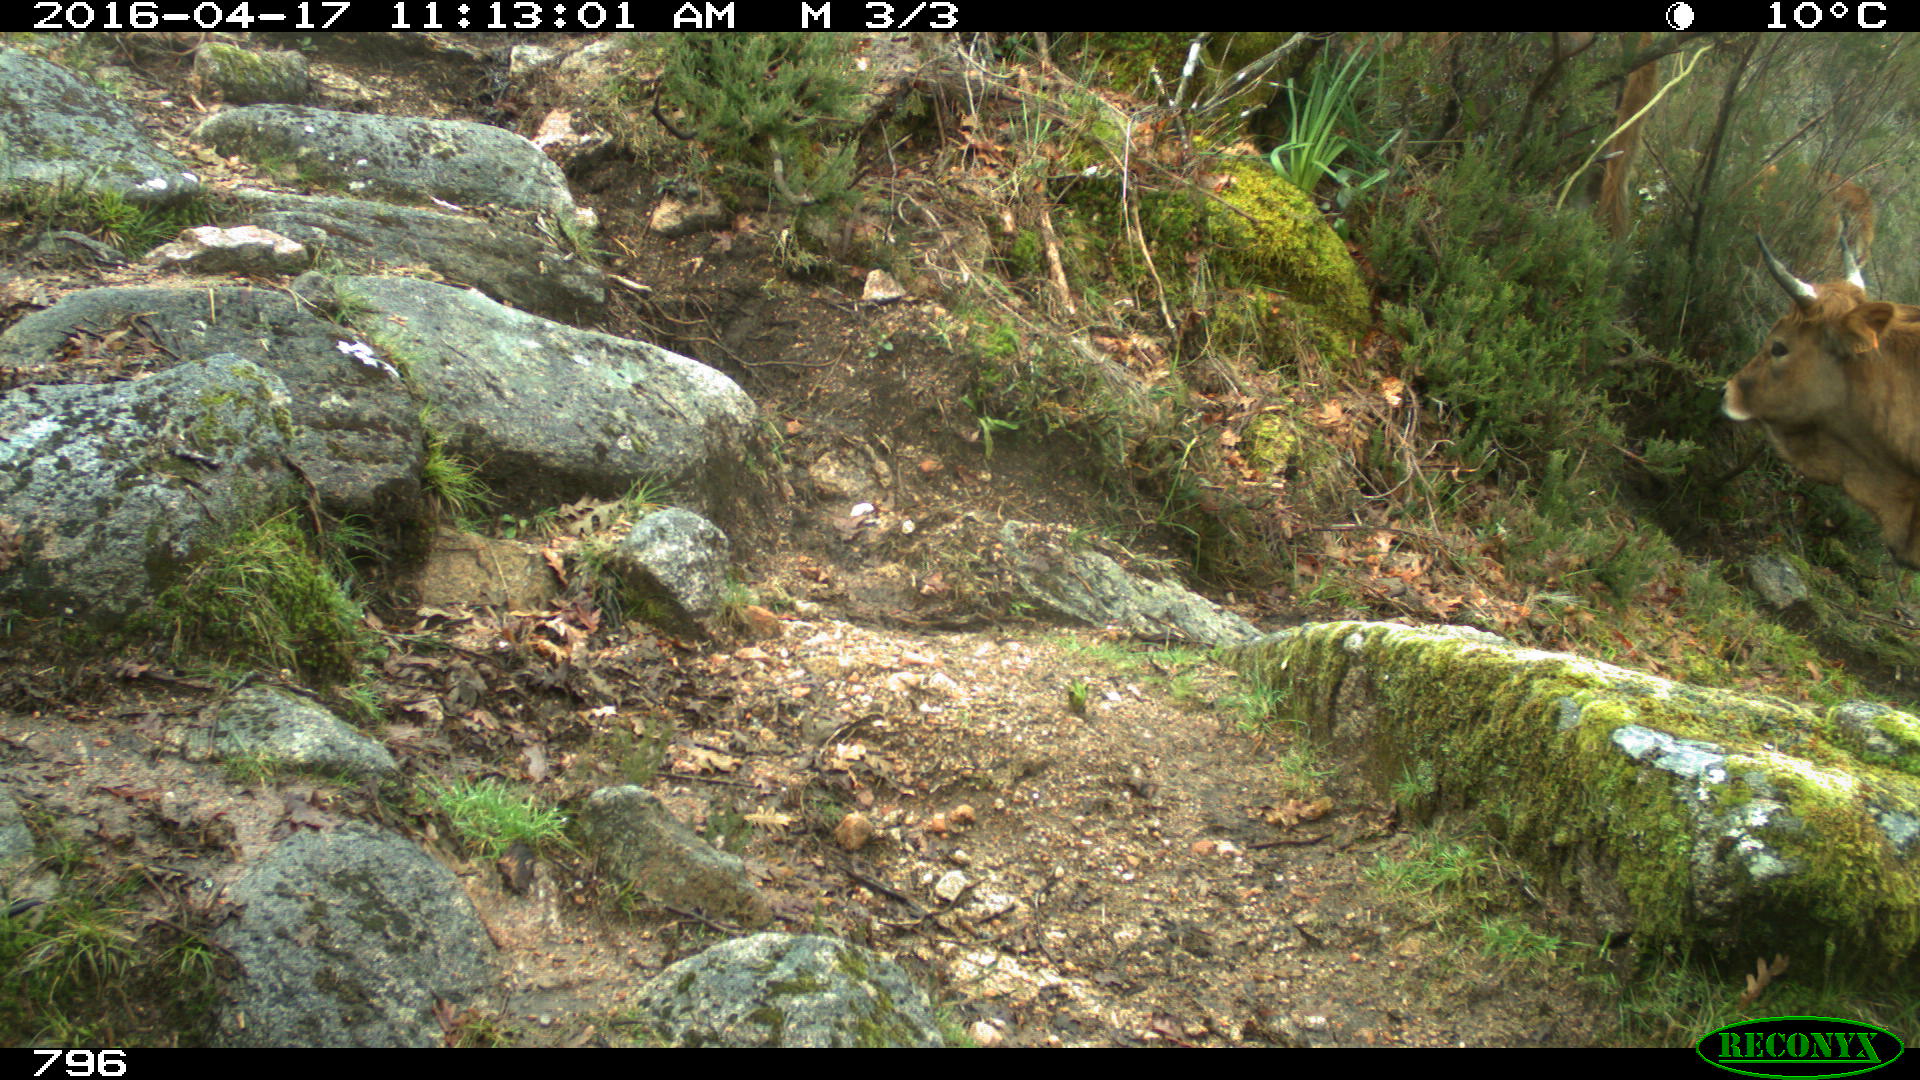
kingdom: Animalia
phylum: Chordata
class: Mammalia
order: Artiodactyla
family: Bovidae
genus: Bos
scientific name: Bos taurus
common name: Domesticated cattle
